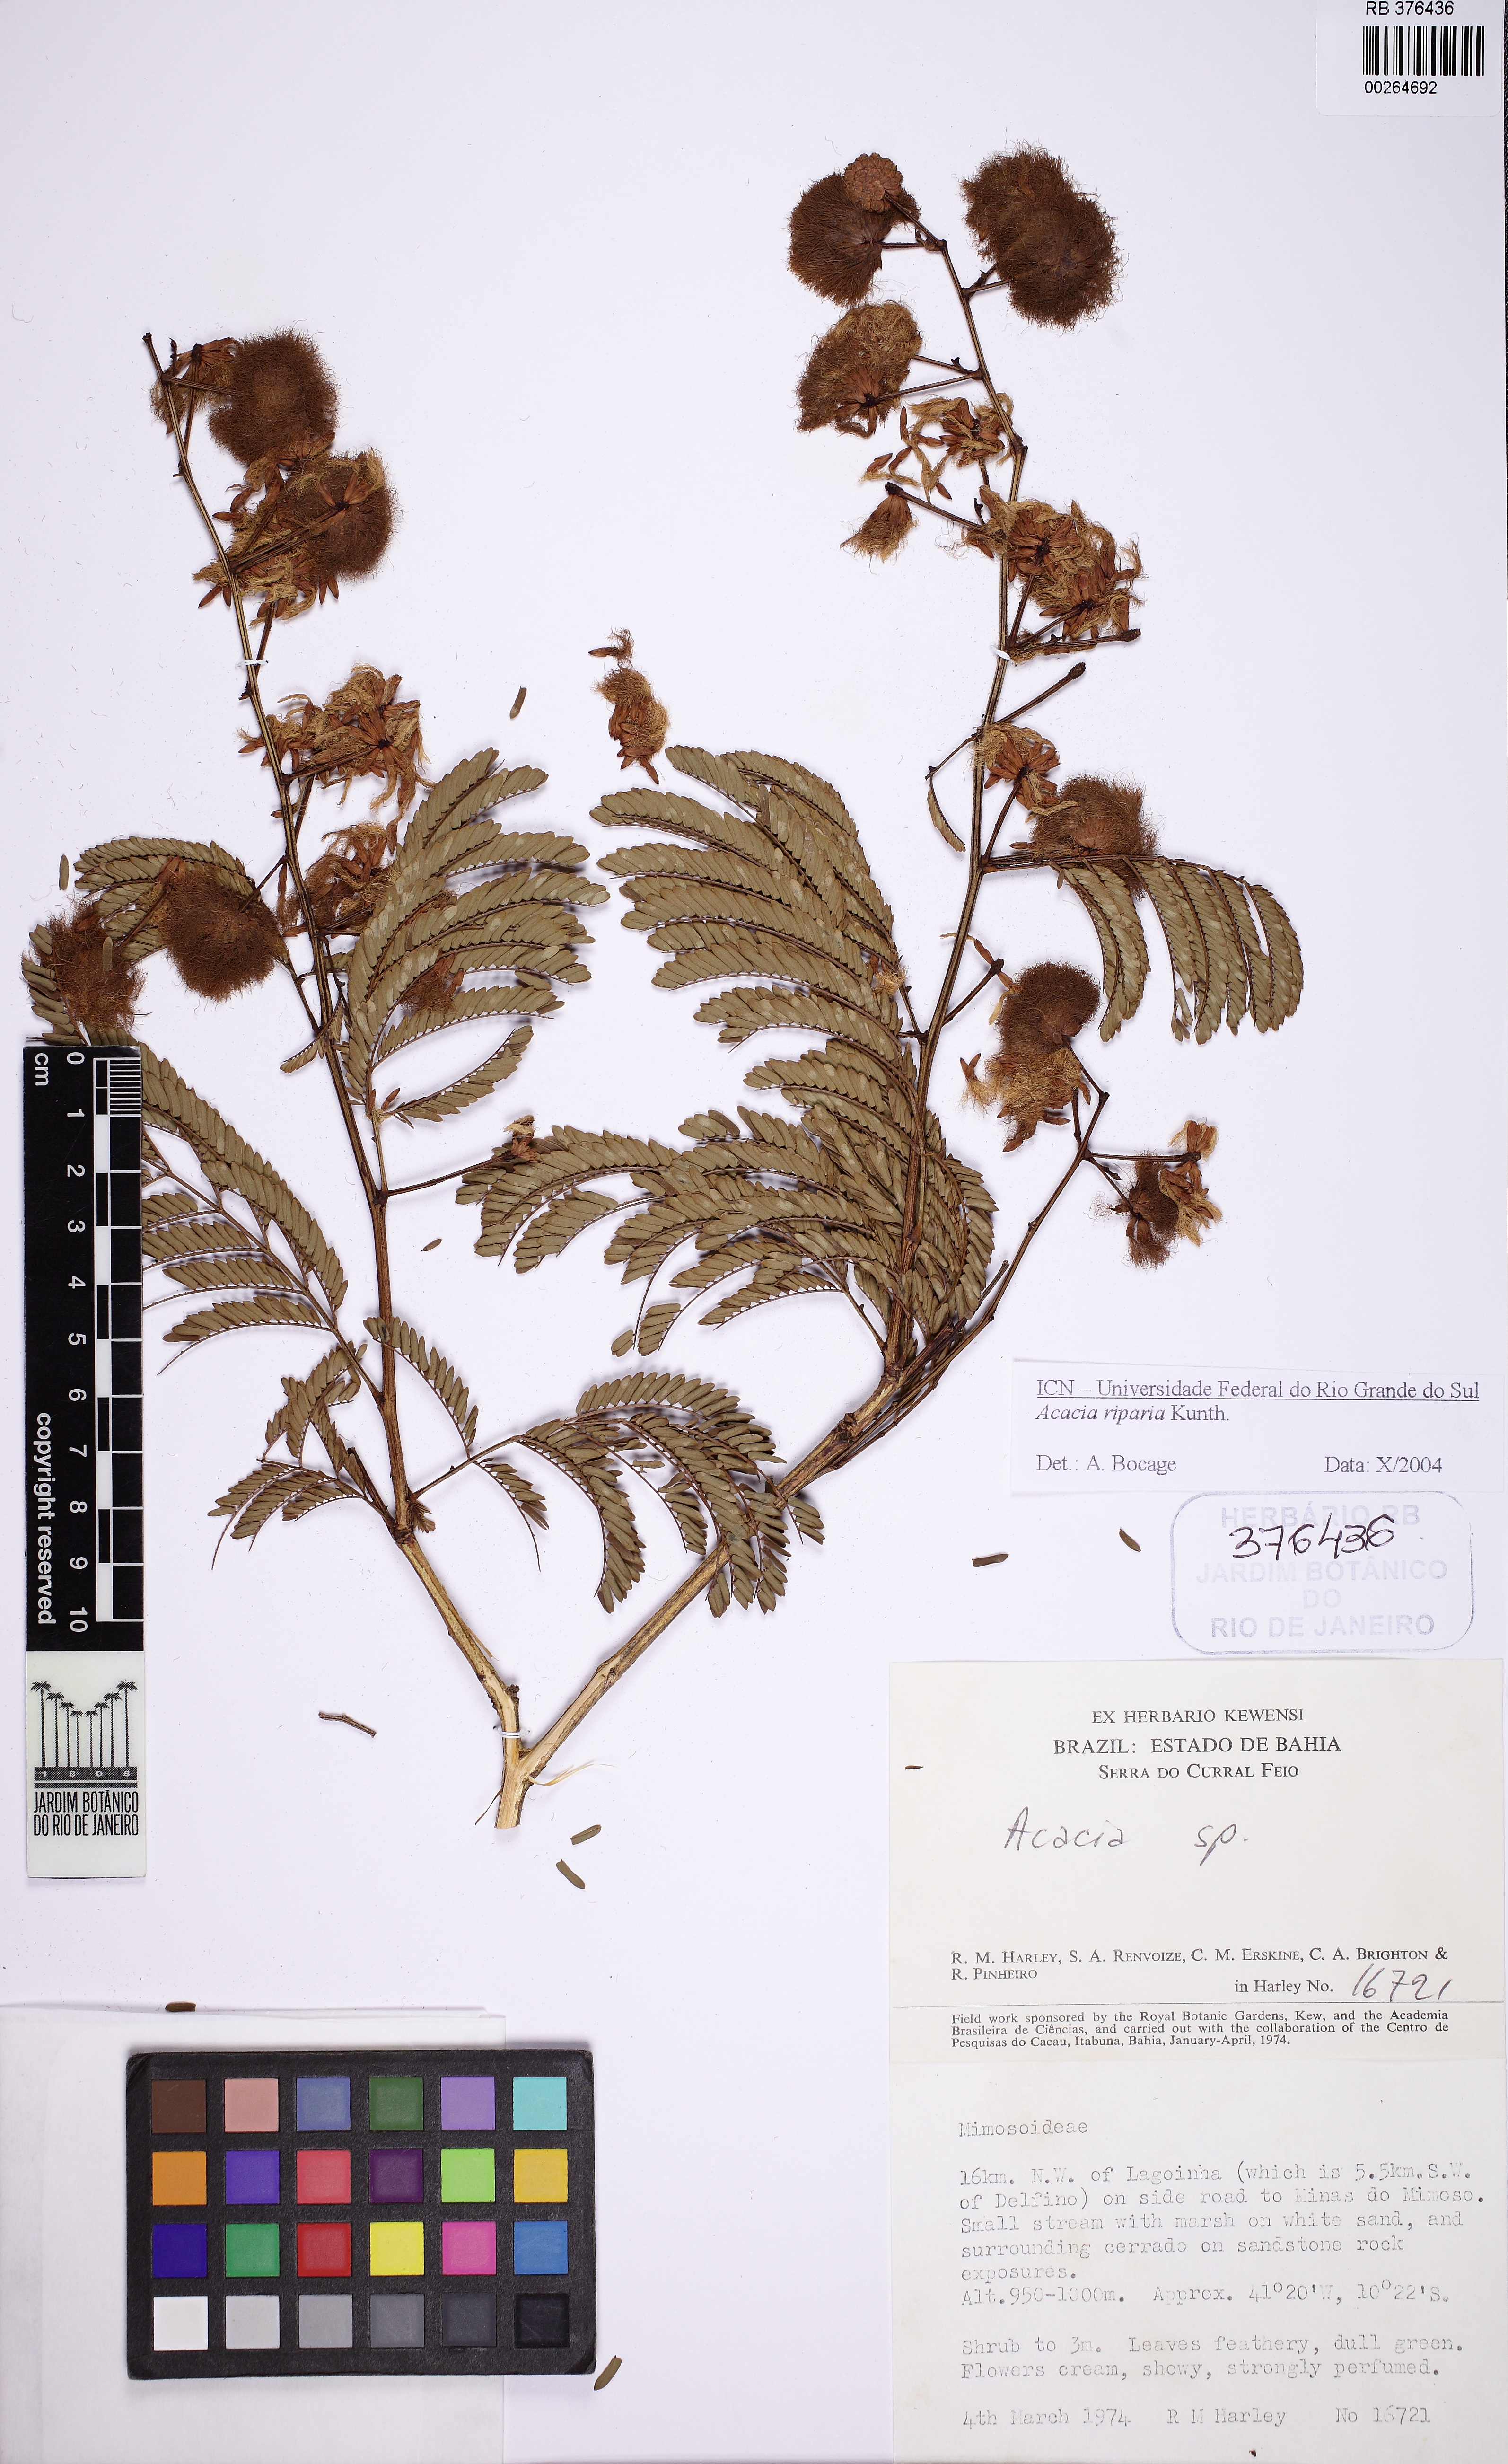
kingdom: Plantae
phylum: Tracheophyta
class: Magnoliopsida
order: Fabales
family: Fabaceae
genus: Senegalia
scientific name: Senegalia riparia
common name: Catch-and-keep
